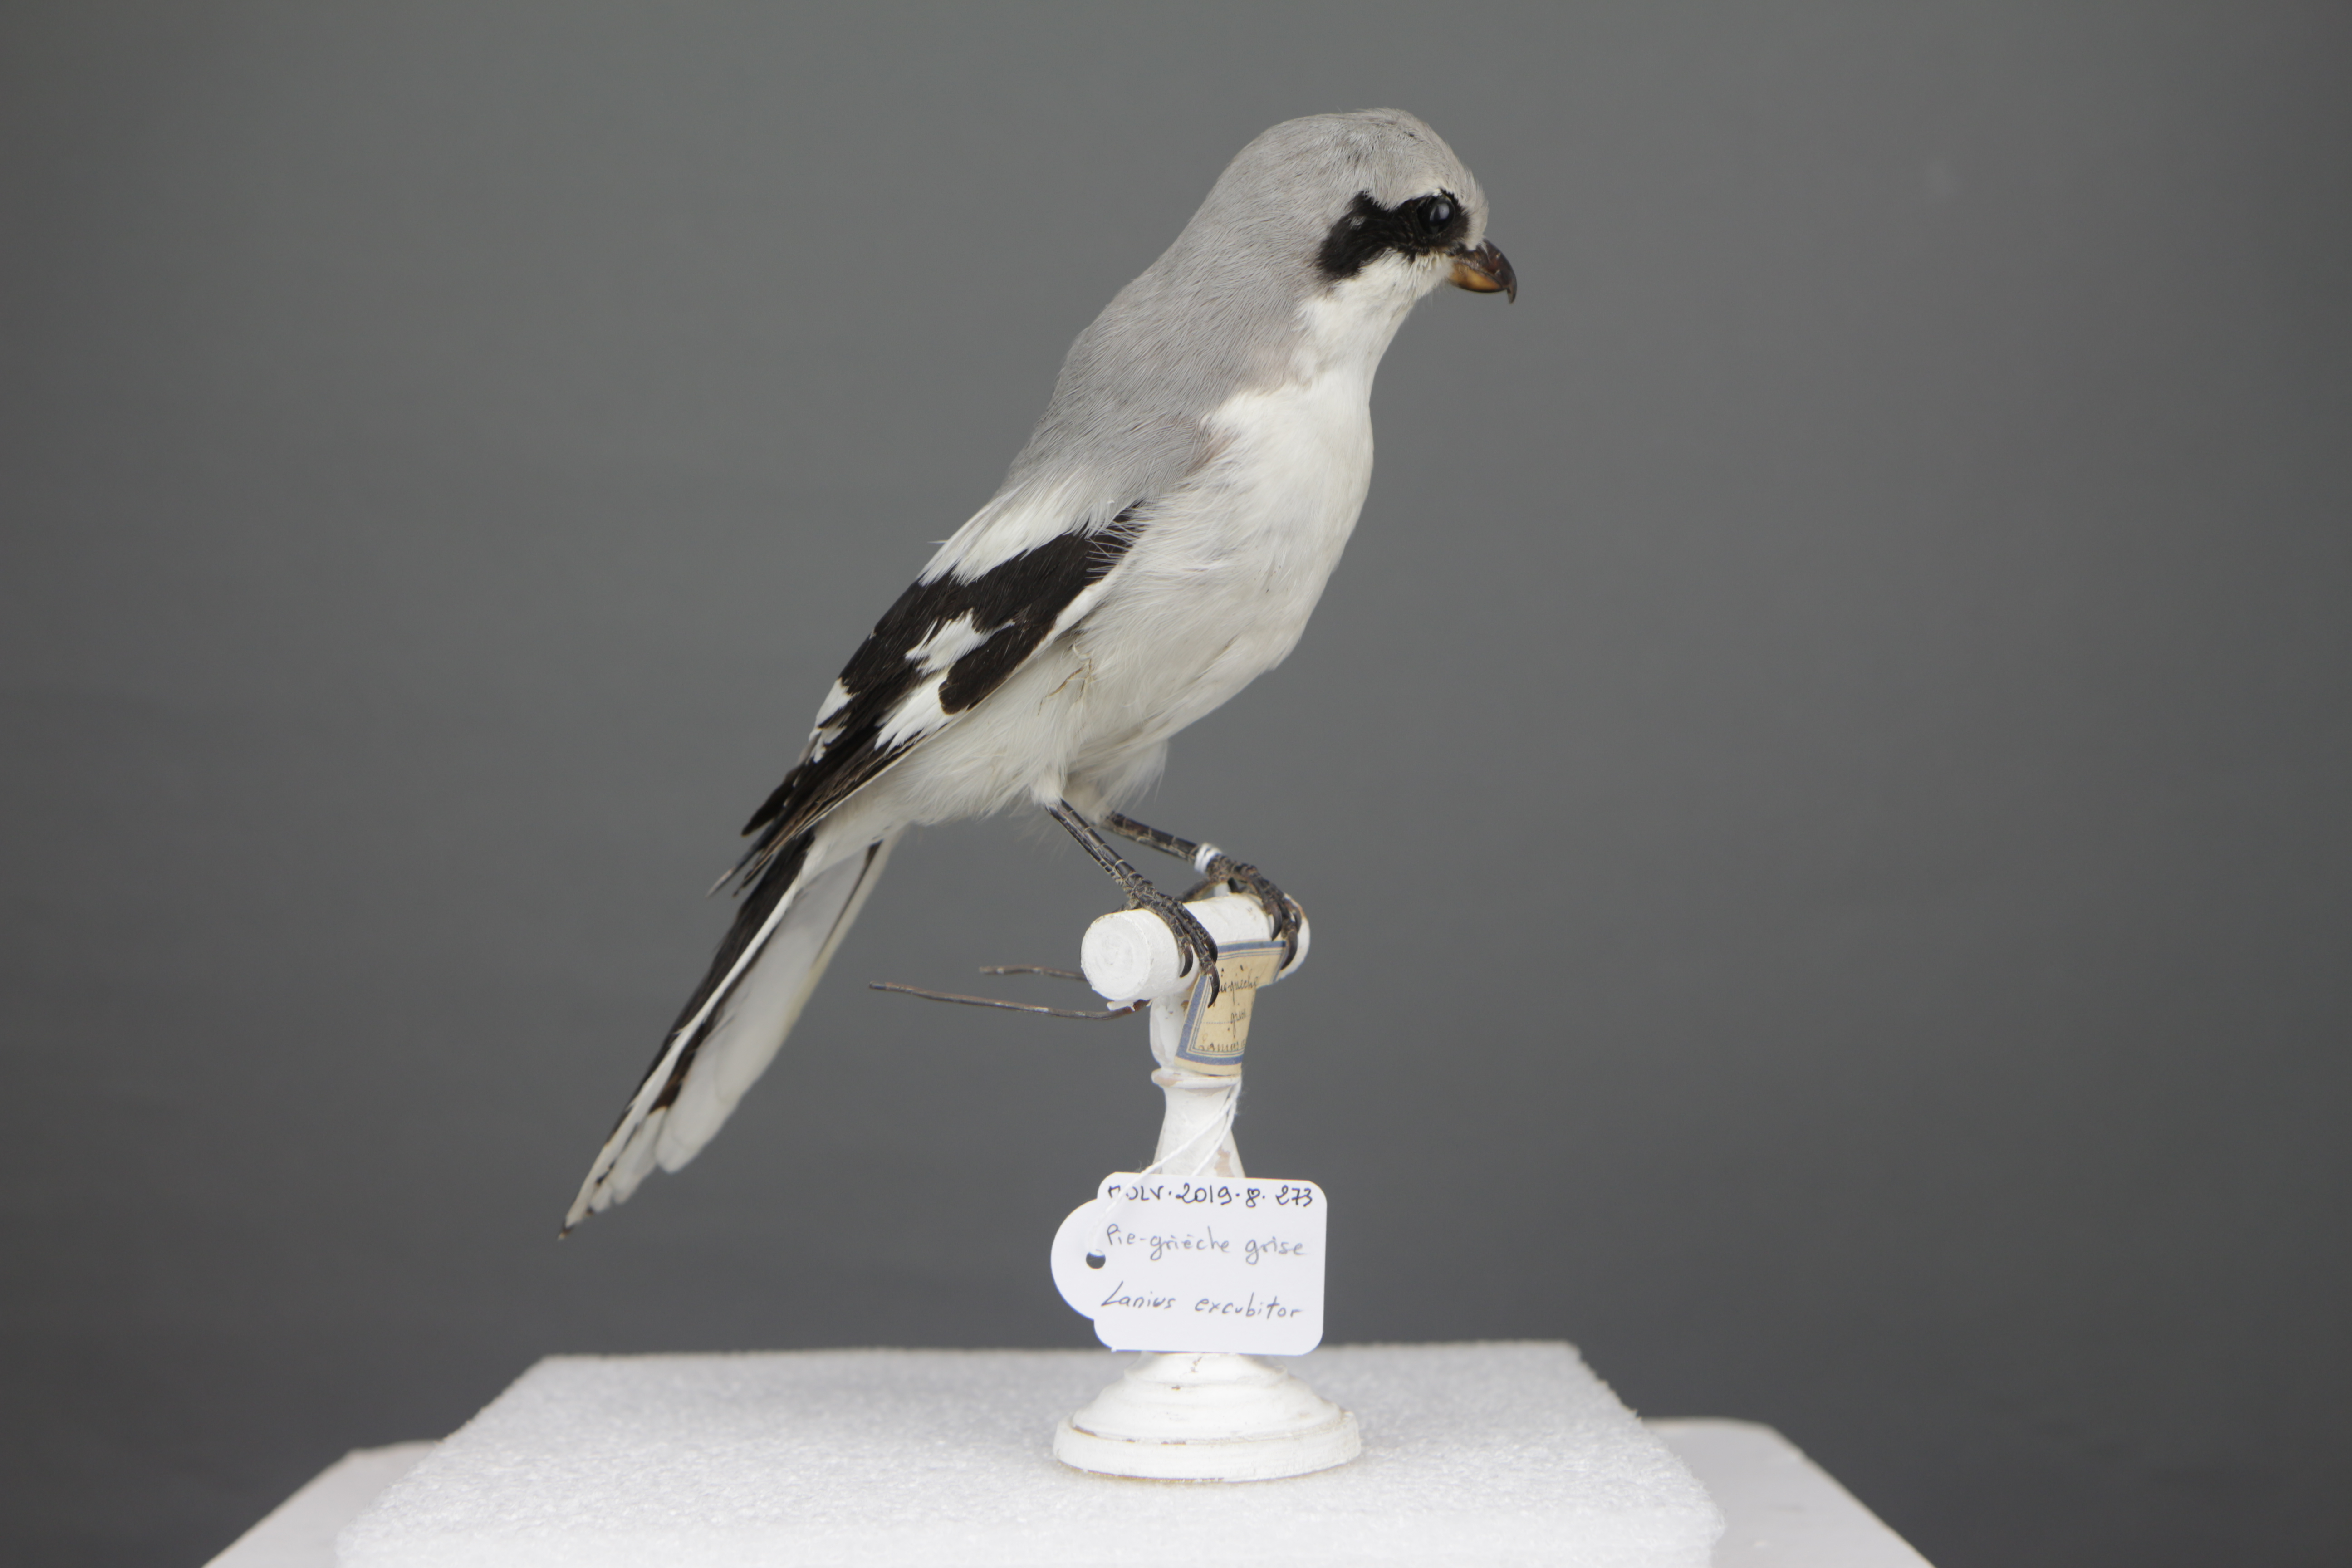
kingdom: Animalia
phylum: Chordata
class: Aves
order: Passeriformes
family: Laniidae
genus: Lanius
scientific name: Lanius excubitor
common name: Great grey shrike
